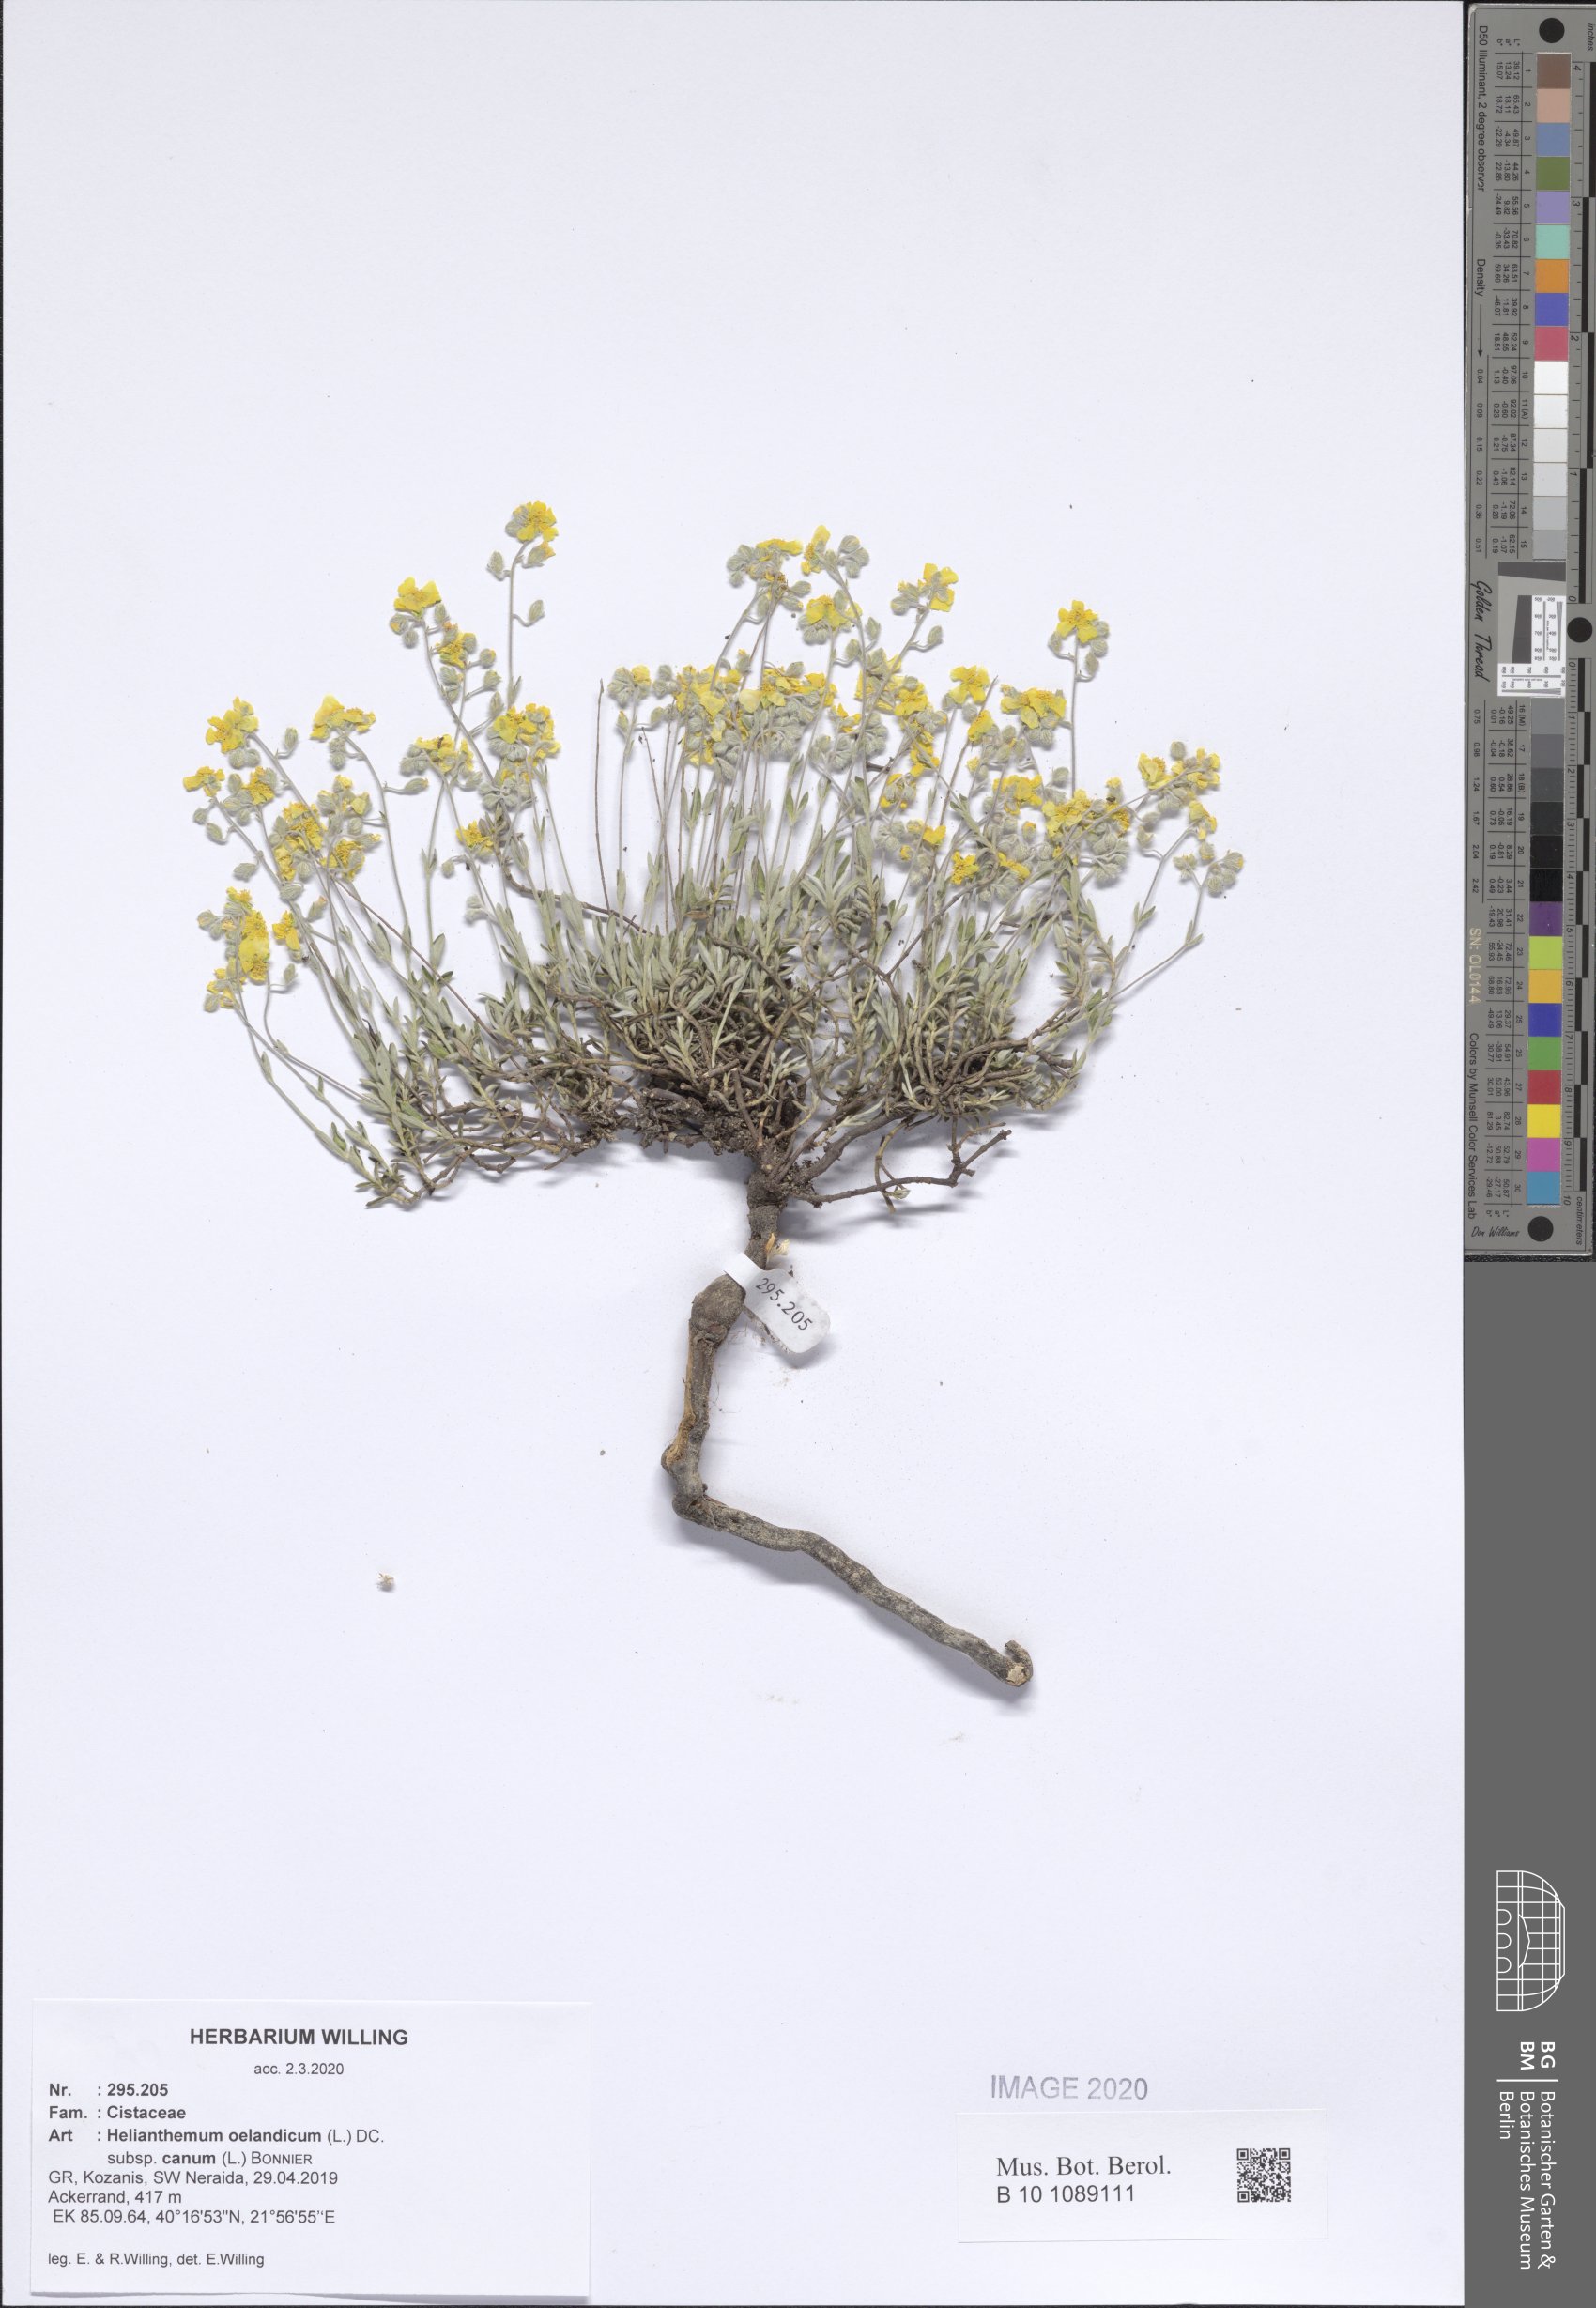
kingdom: Plantae
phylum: Tracheophyta
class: Magnoliopsida
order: Malvales
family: Cistaceae
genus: Helianthemum
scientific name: Helianthemum canum
